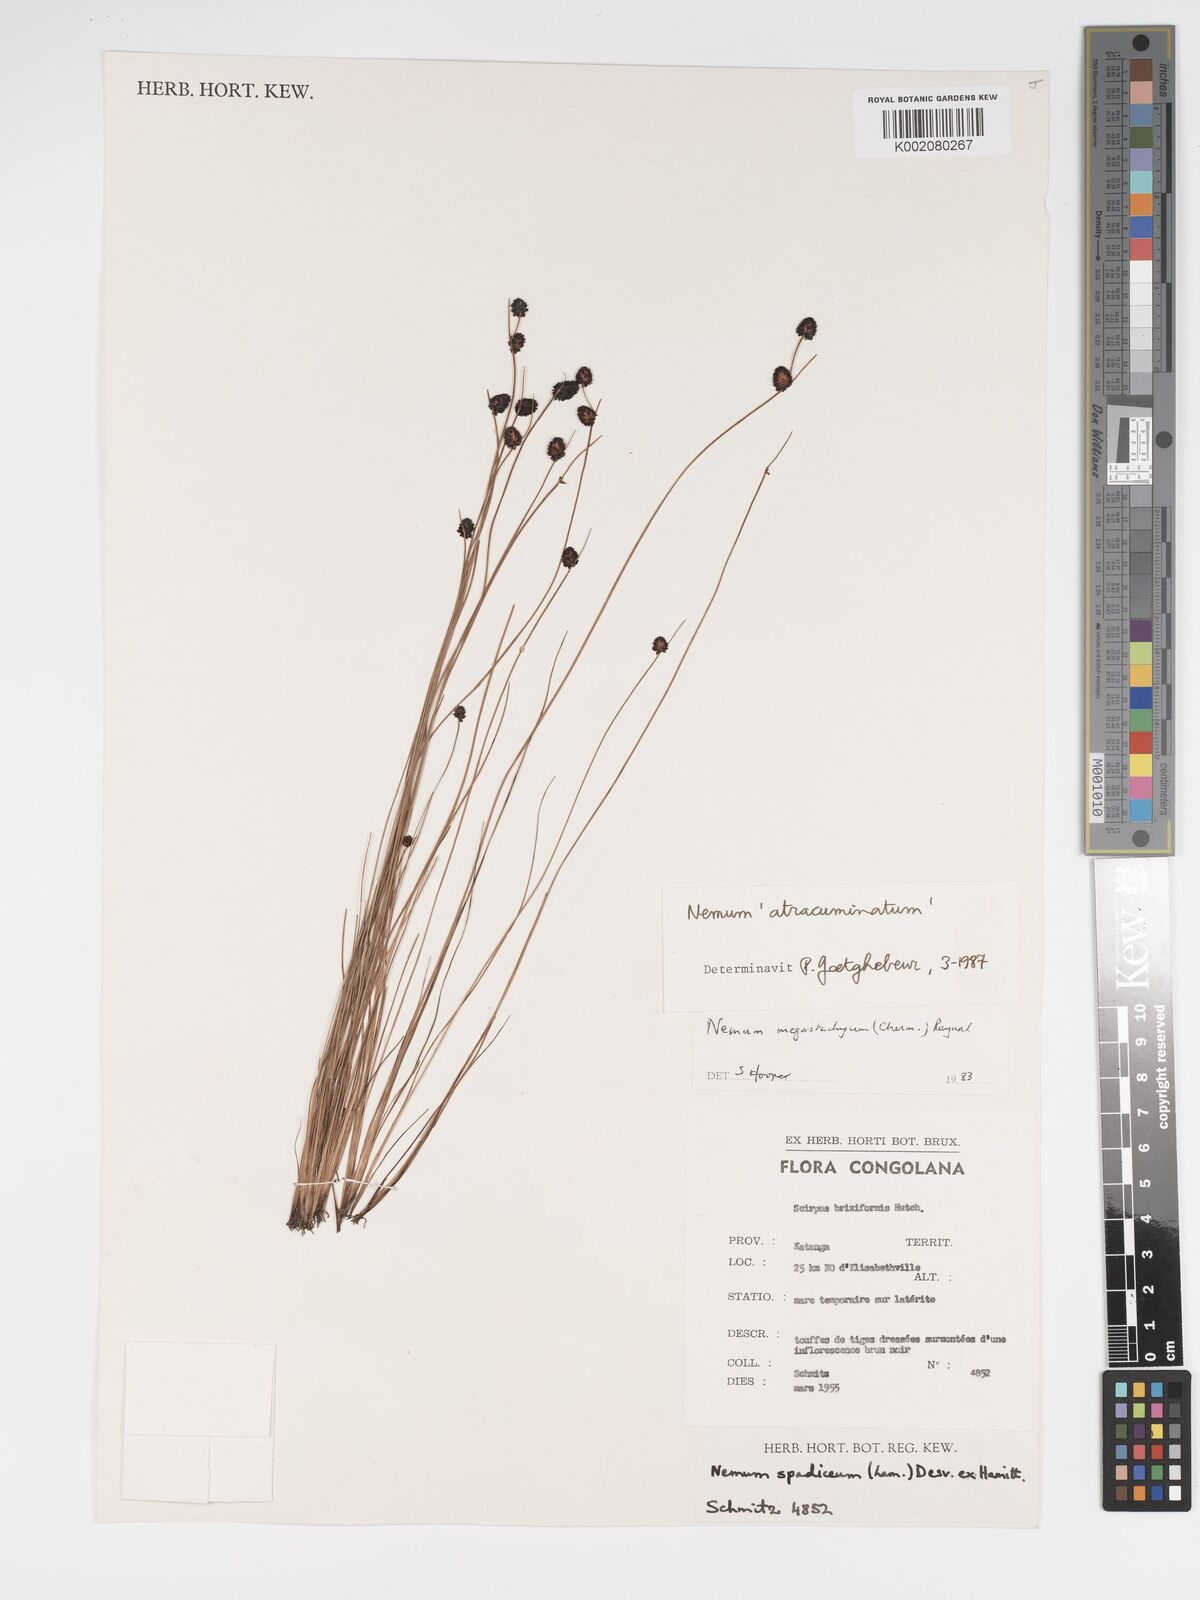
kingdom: Plantae
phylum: Tracheophyta
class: Liliopsida
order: Poales
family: Cyperaceae
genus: Bulbostylis
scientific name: Bulbostylis atracuminata
